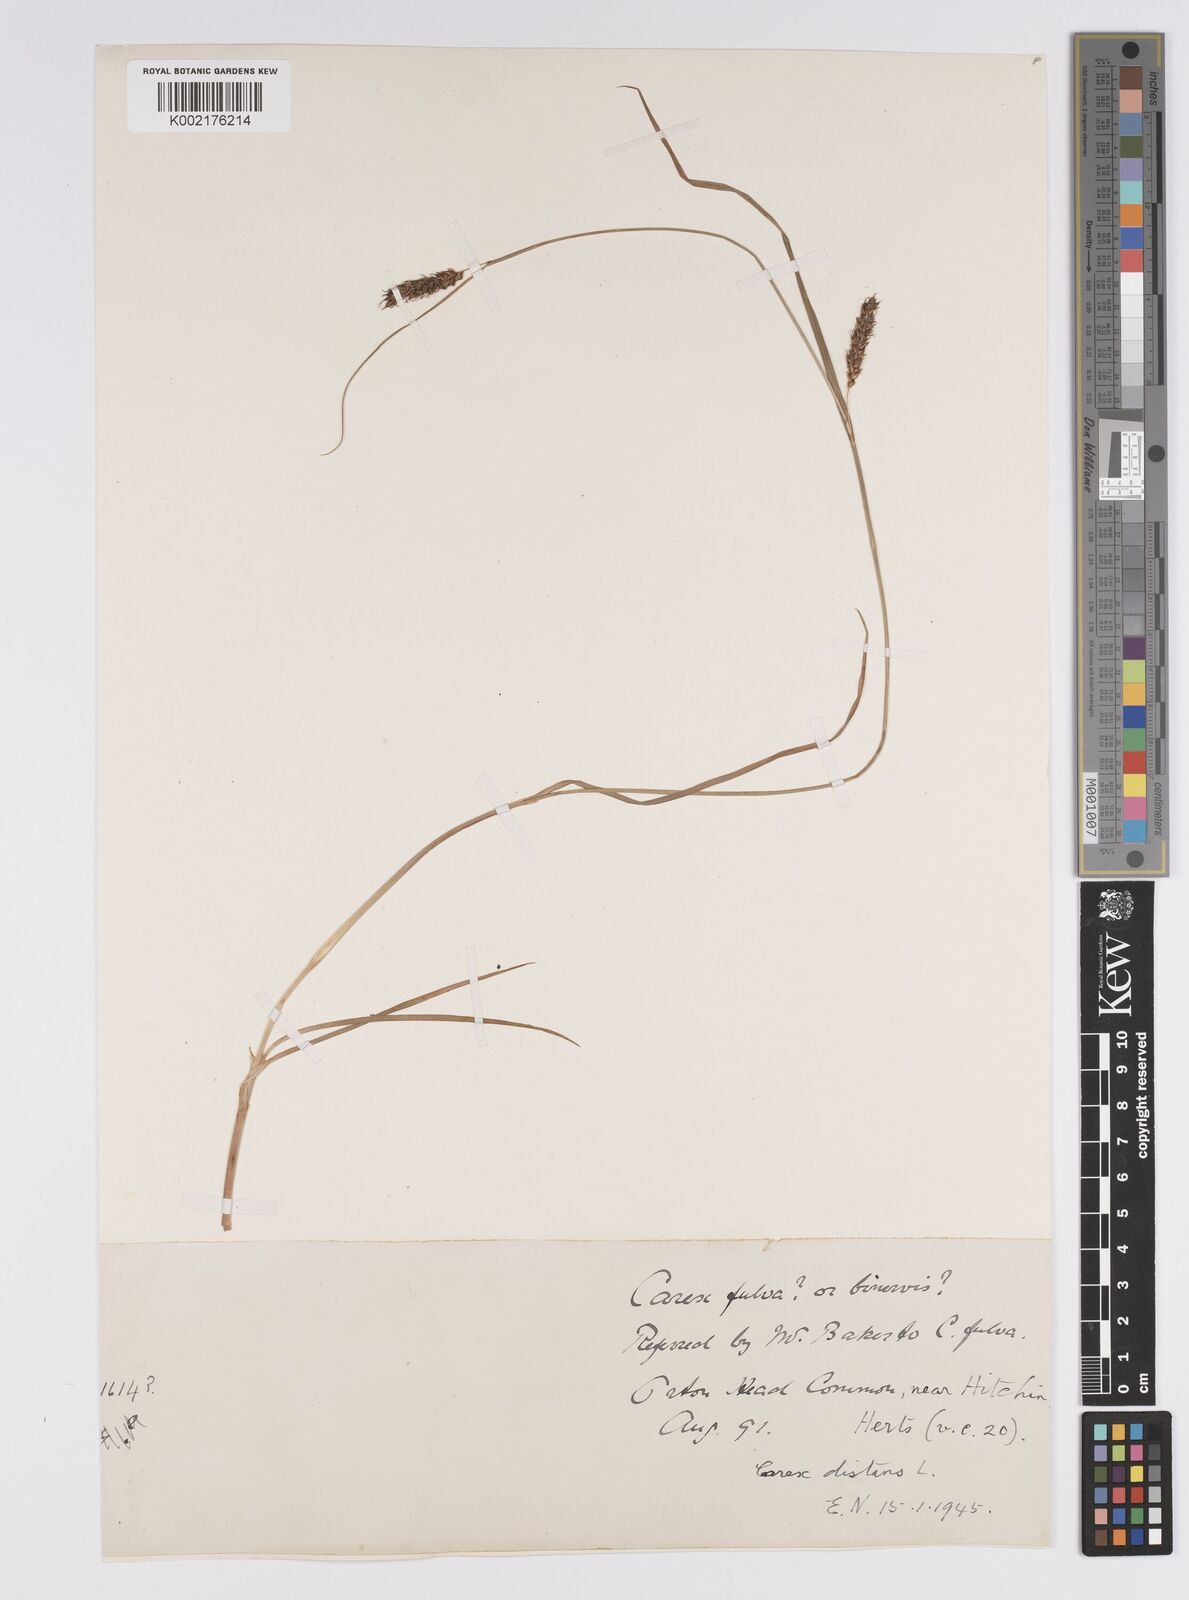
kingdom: Plantae
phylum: Tracheophyta
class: Liliopsida
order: Poales
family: Cyperaceae
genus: Carex
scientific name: Carex distans
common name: Distant sedge
